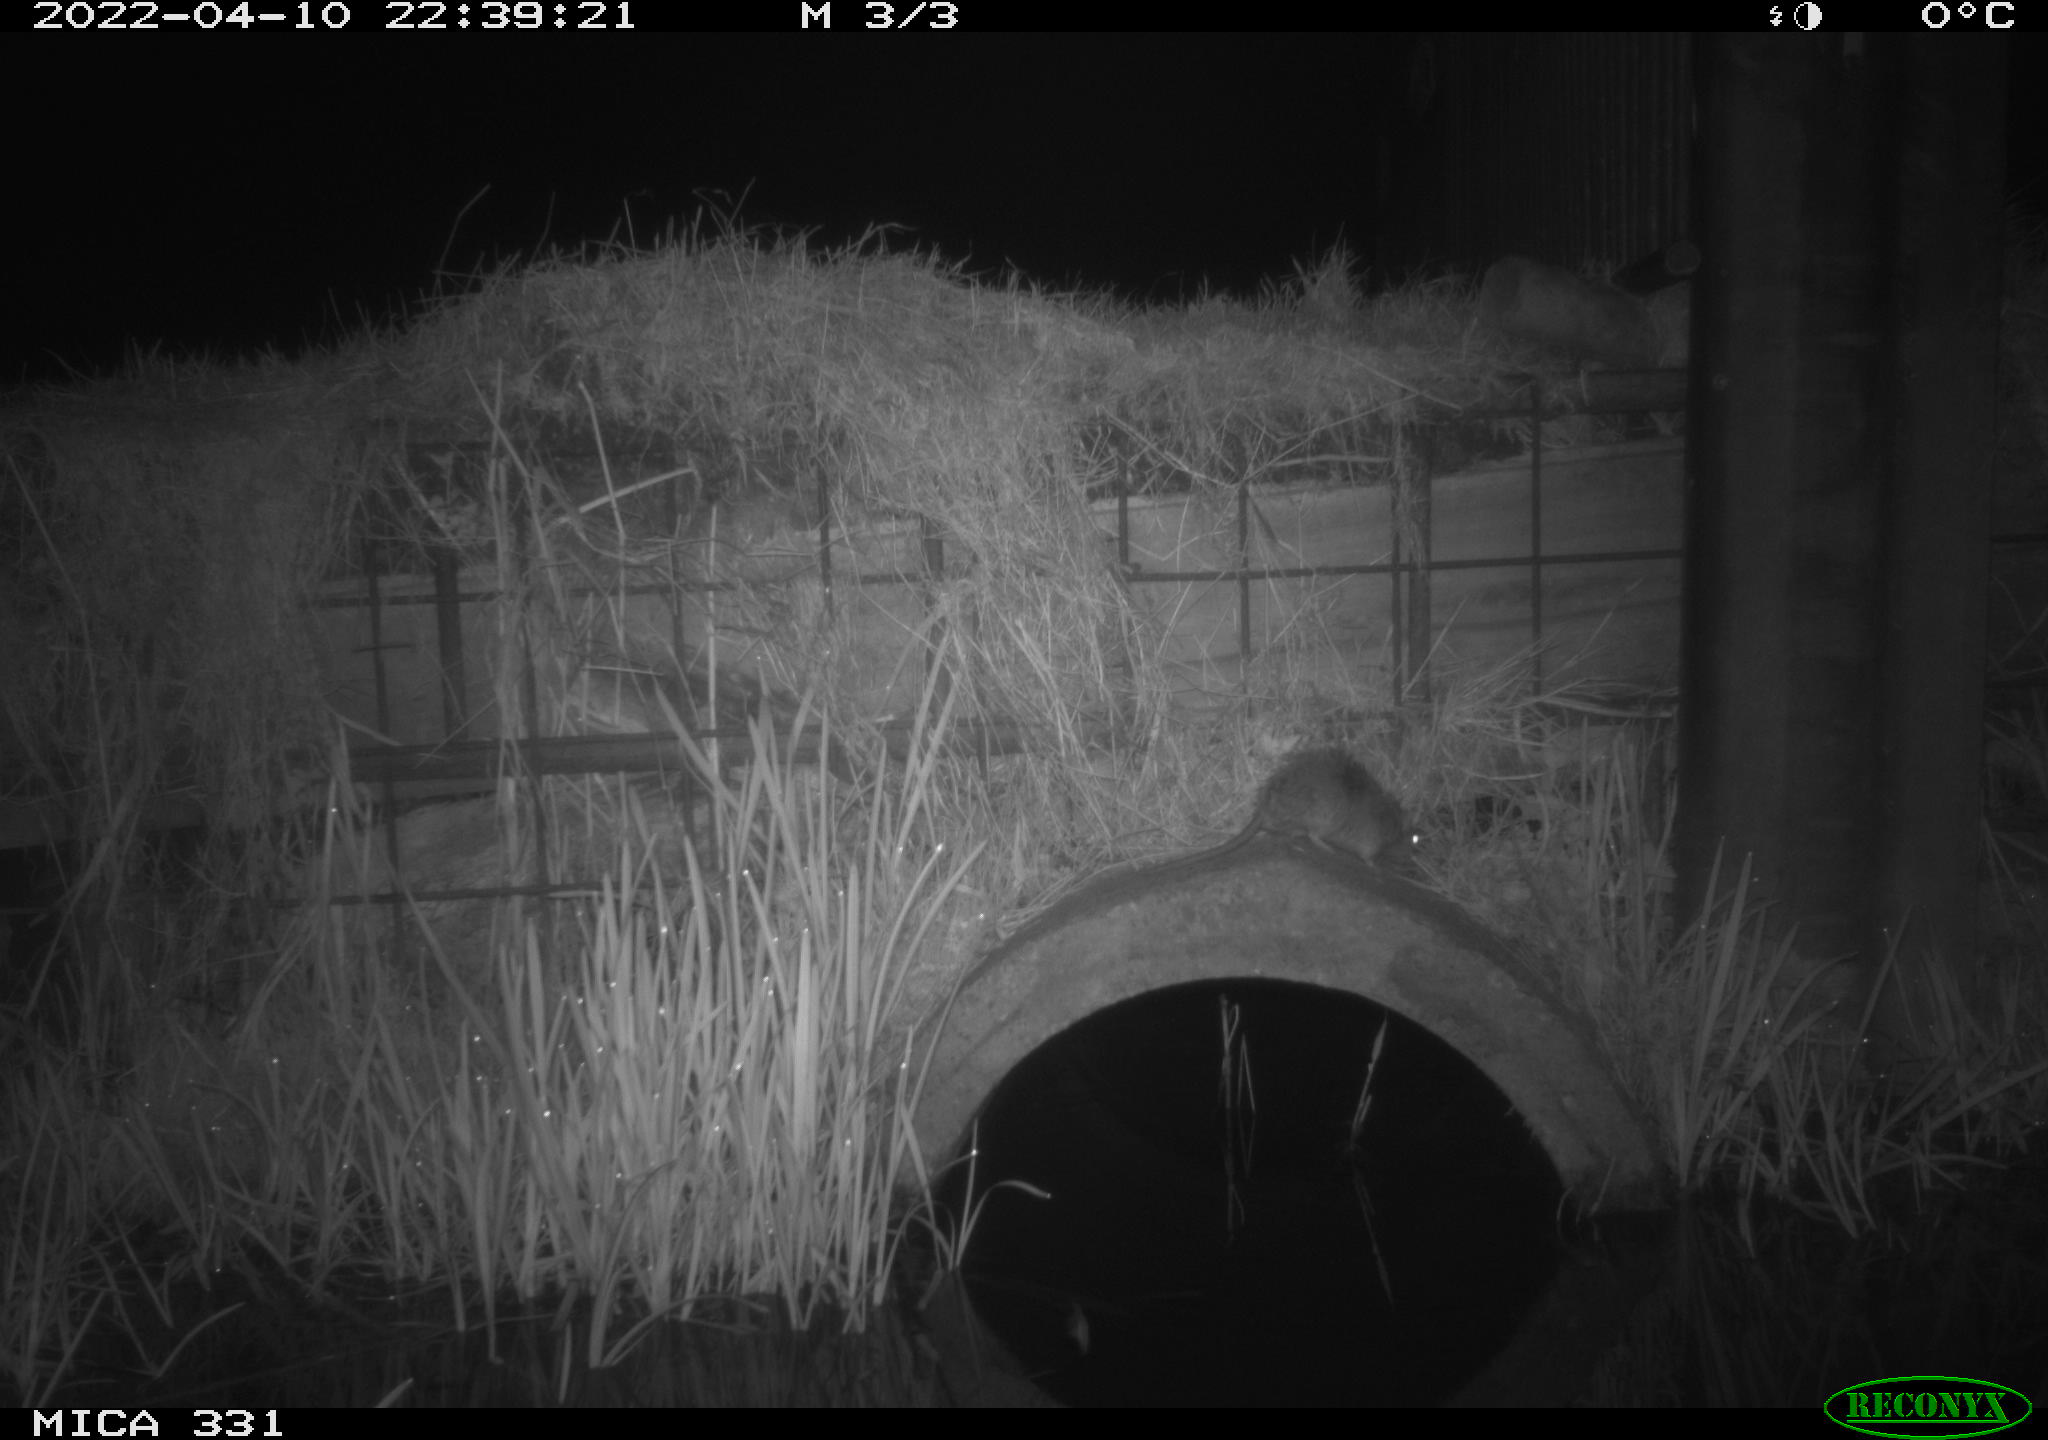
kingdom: Animalia
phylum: Chordata
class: Mammalia
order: Rodentia
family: Muridae
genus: Rattus
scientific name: Rattus norvegicus
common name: Brown rat
